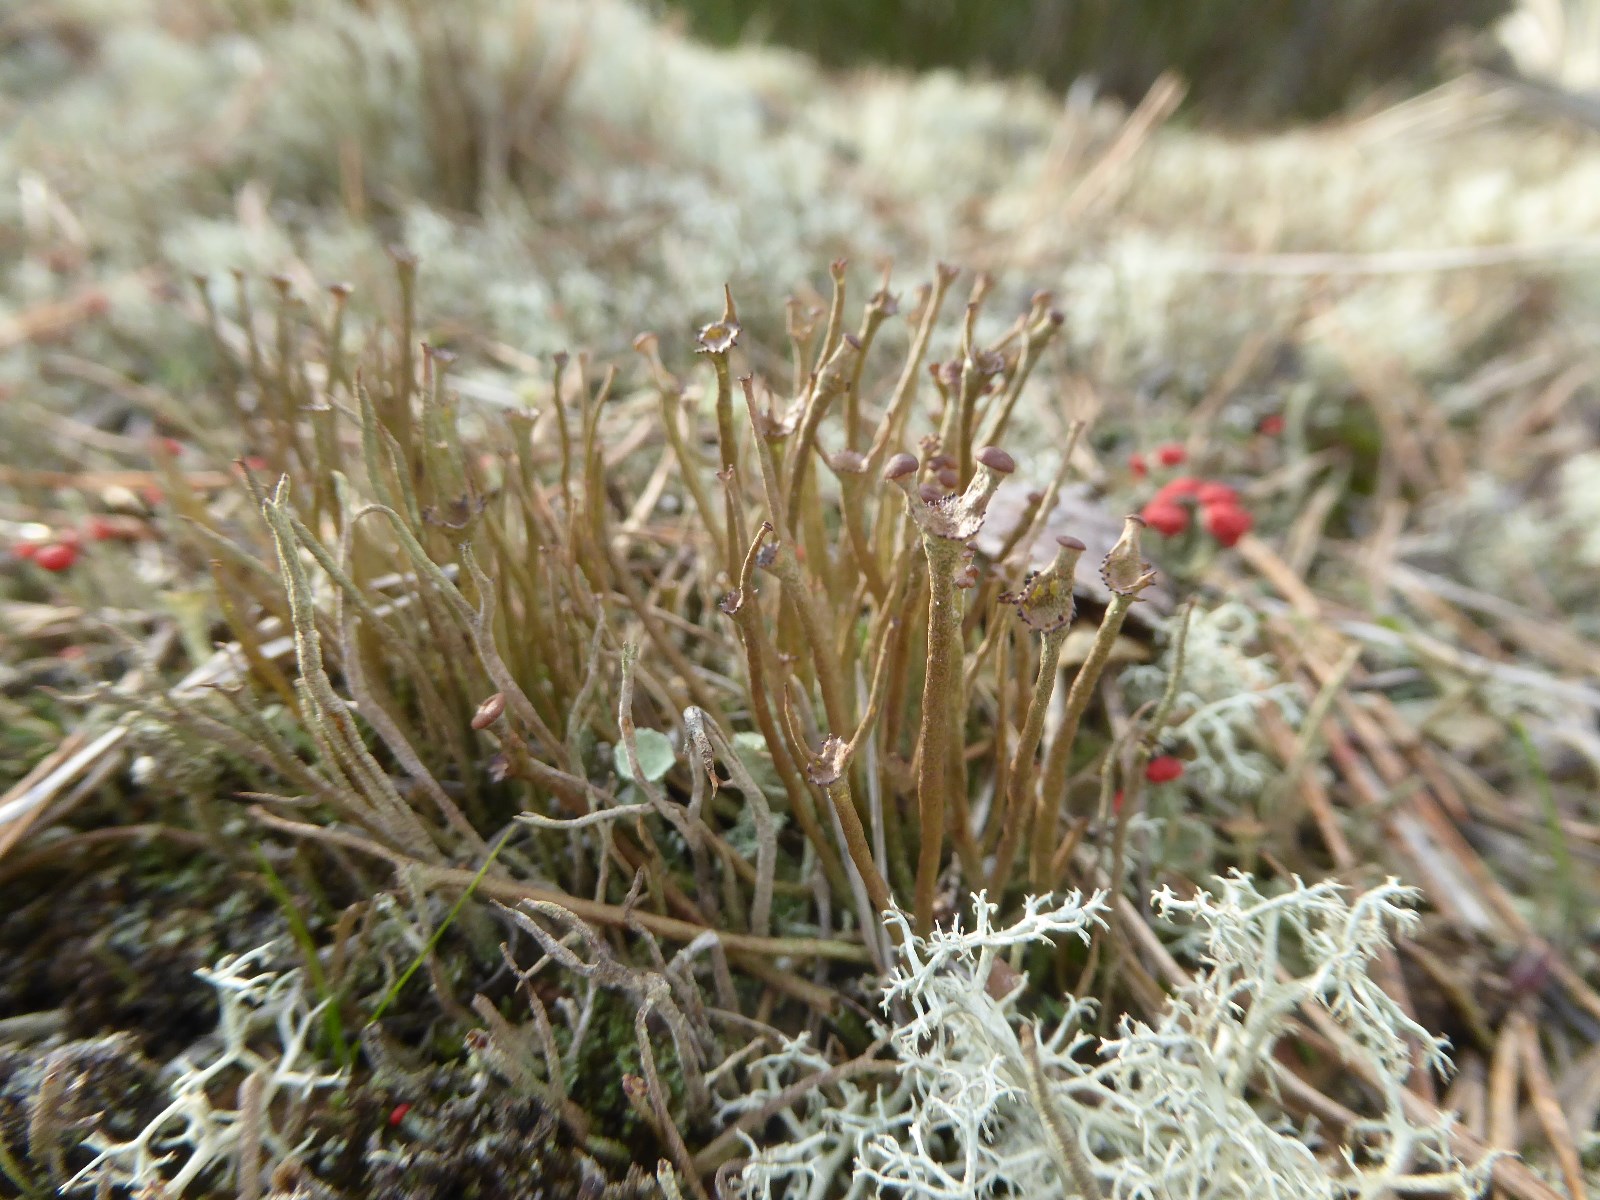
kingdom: Fungi
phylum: Ascomycota
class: Lecanoromycetes
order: Lecanorales
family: Cladoniaceae
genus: Cladonia
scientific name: Cladonia gracilis
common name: slank bægerlav
